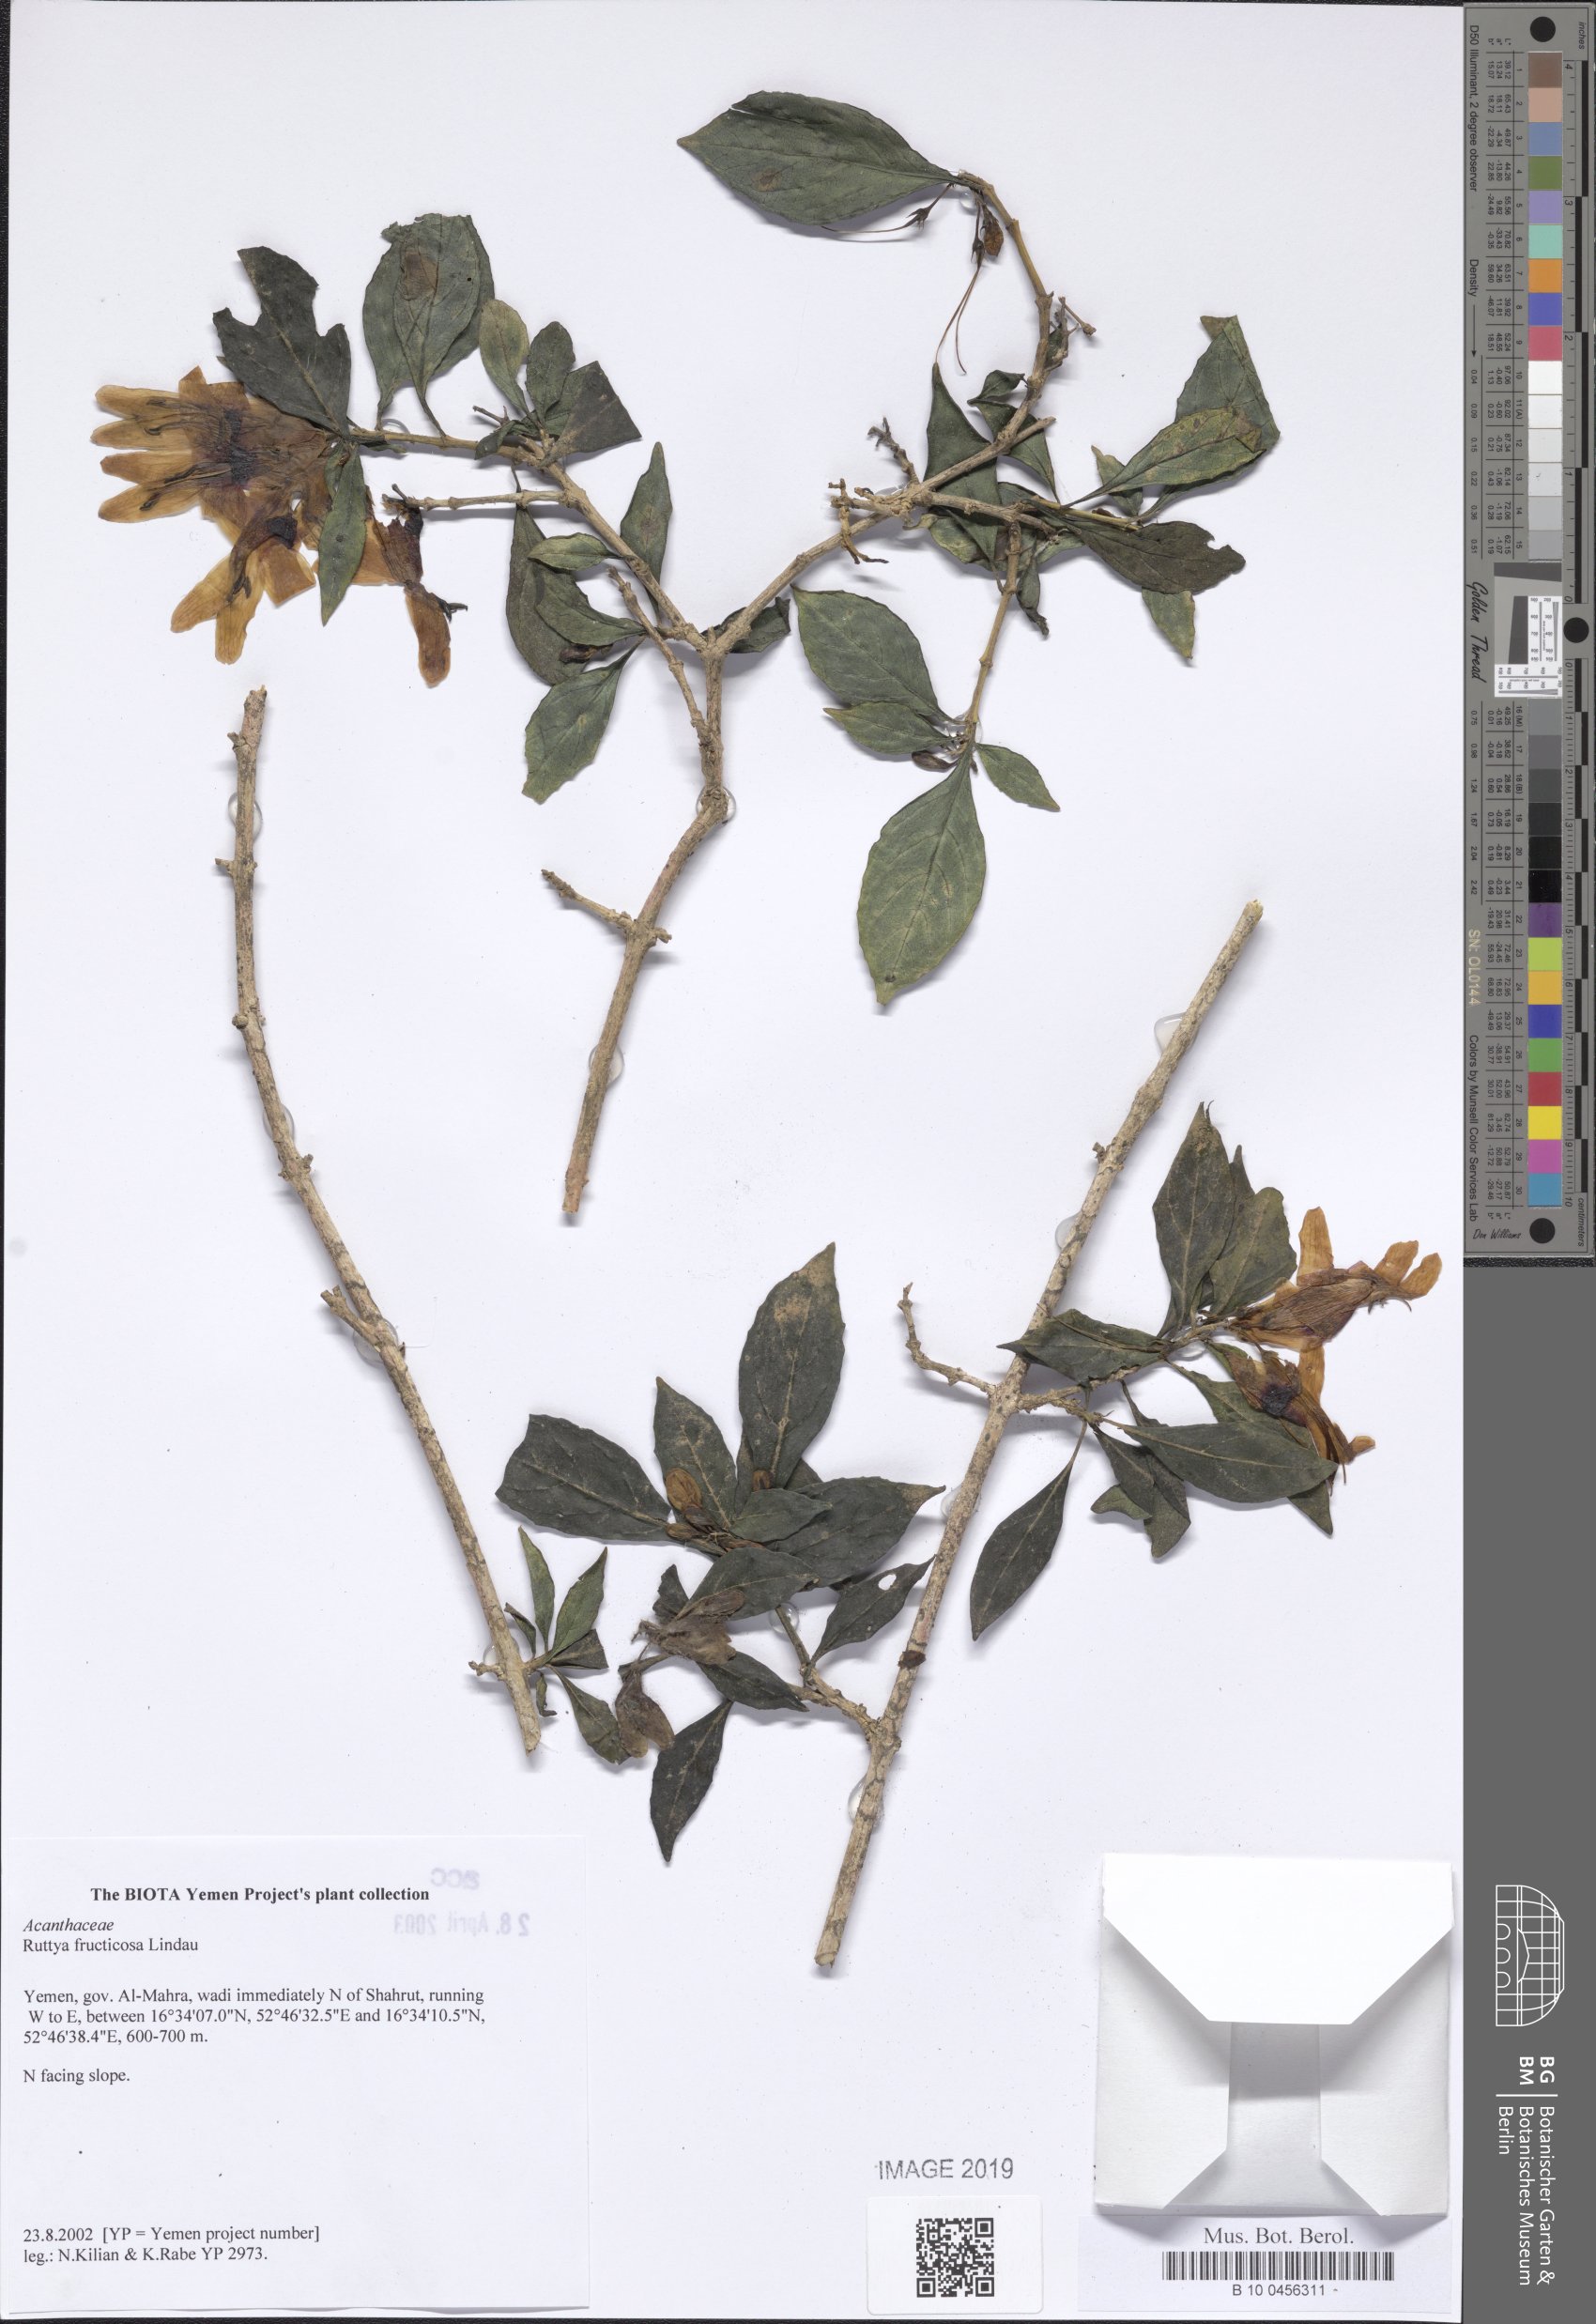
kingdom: Plantae
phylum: Tracheophyta
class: Magnoliopsida
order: Lamiales
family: Acanthaceae
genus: Ruttya
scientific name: Ruttya fruticosa
